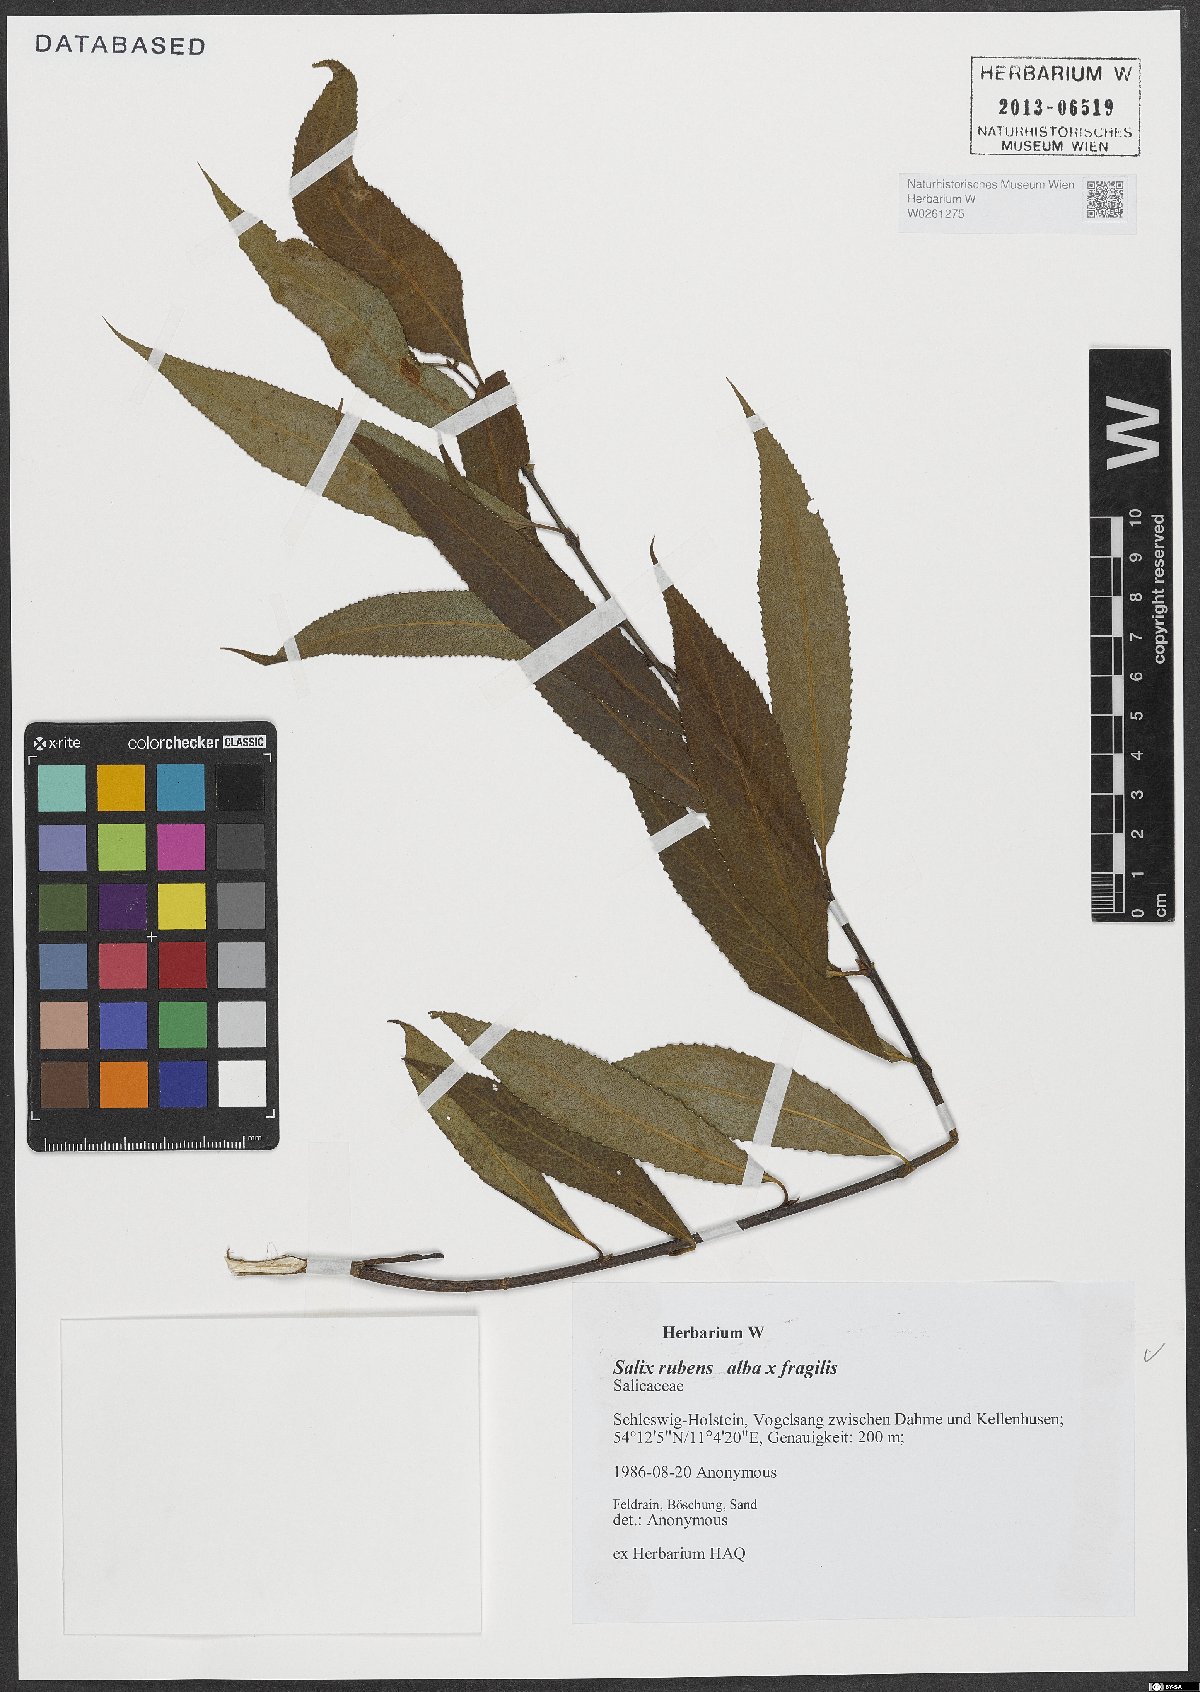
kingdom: Plantae
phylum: Tracheophyta
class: Magnoliopsida
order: Malpighiales
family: Salicaceae
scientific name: Salicaceae
